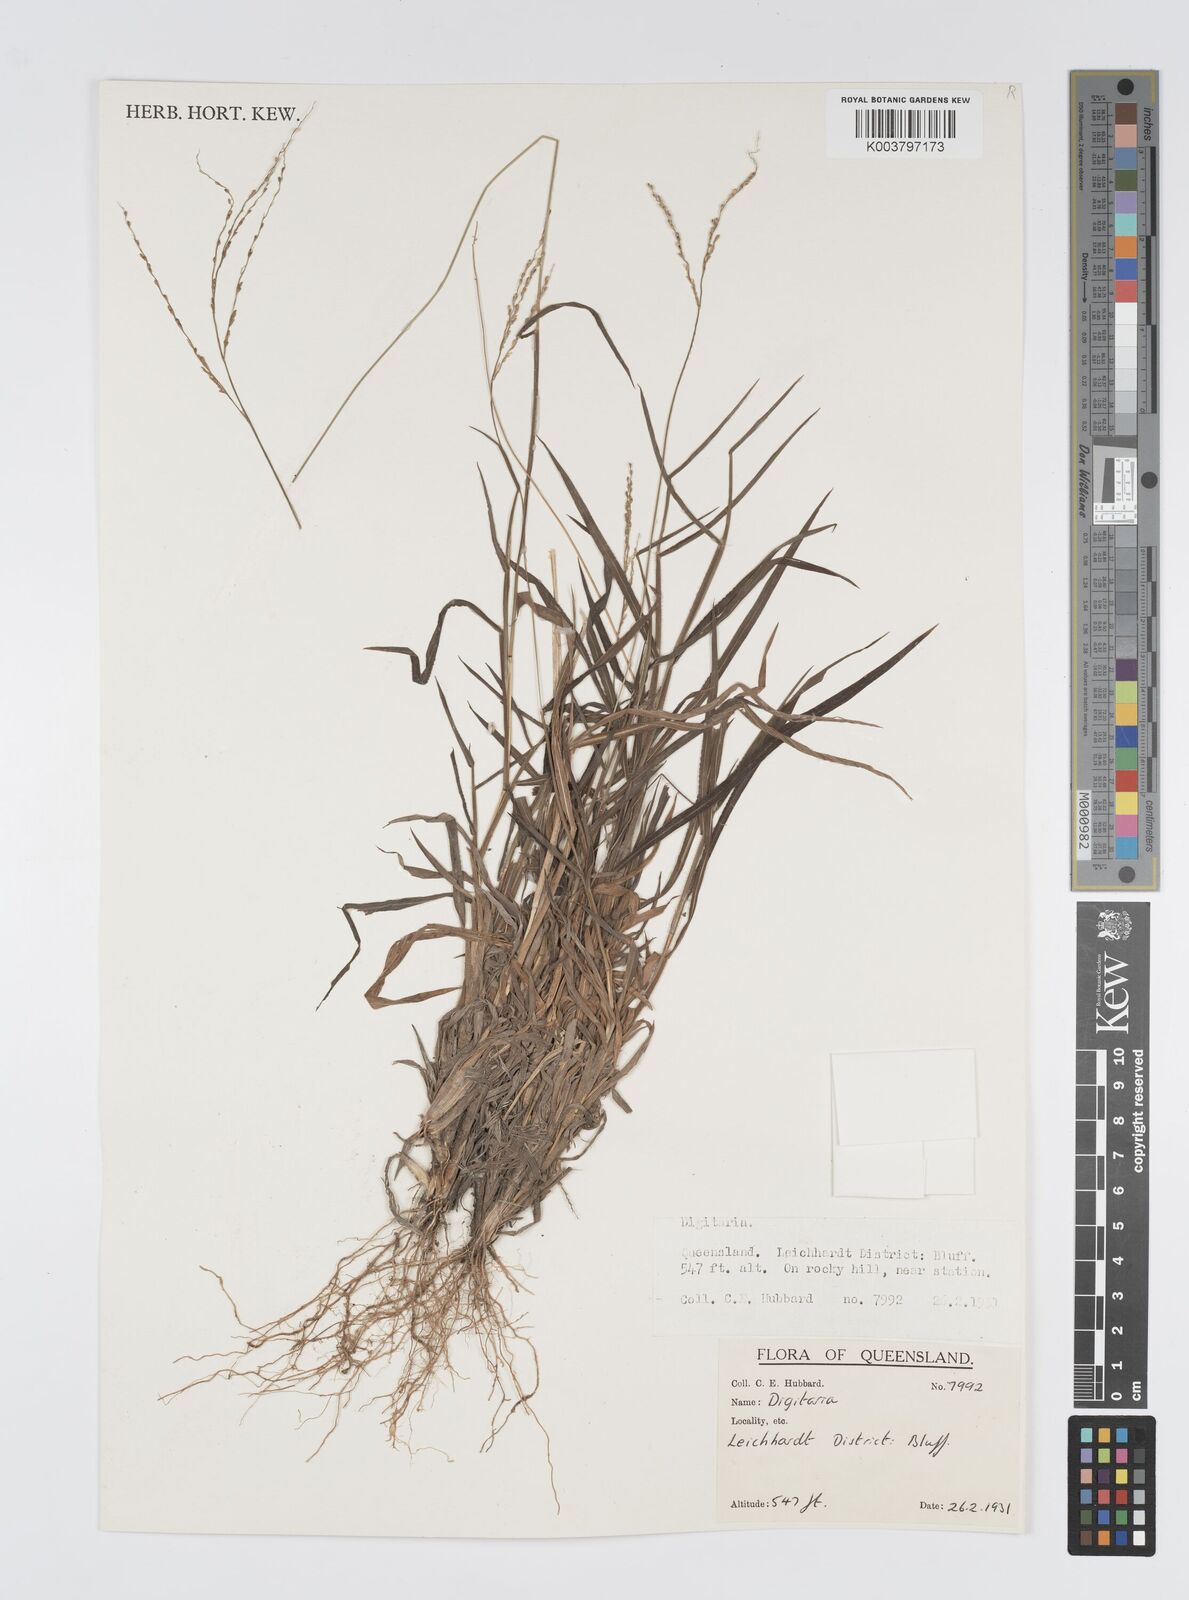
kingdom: Plantae
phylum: Tracheophyta
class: Liliopsida
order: Poales
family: Poaceae
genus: Digitaria
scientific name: Digitaria spec
